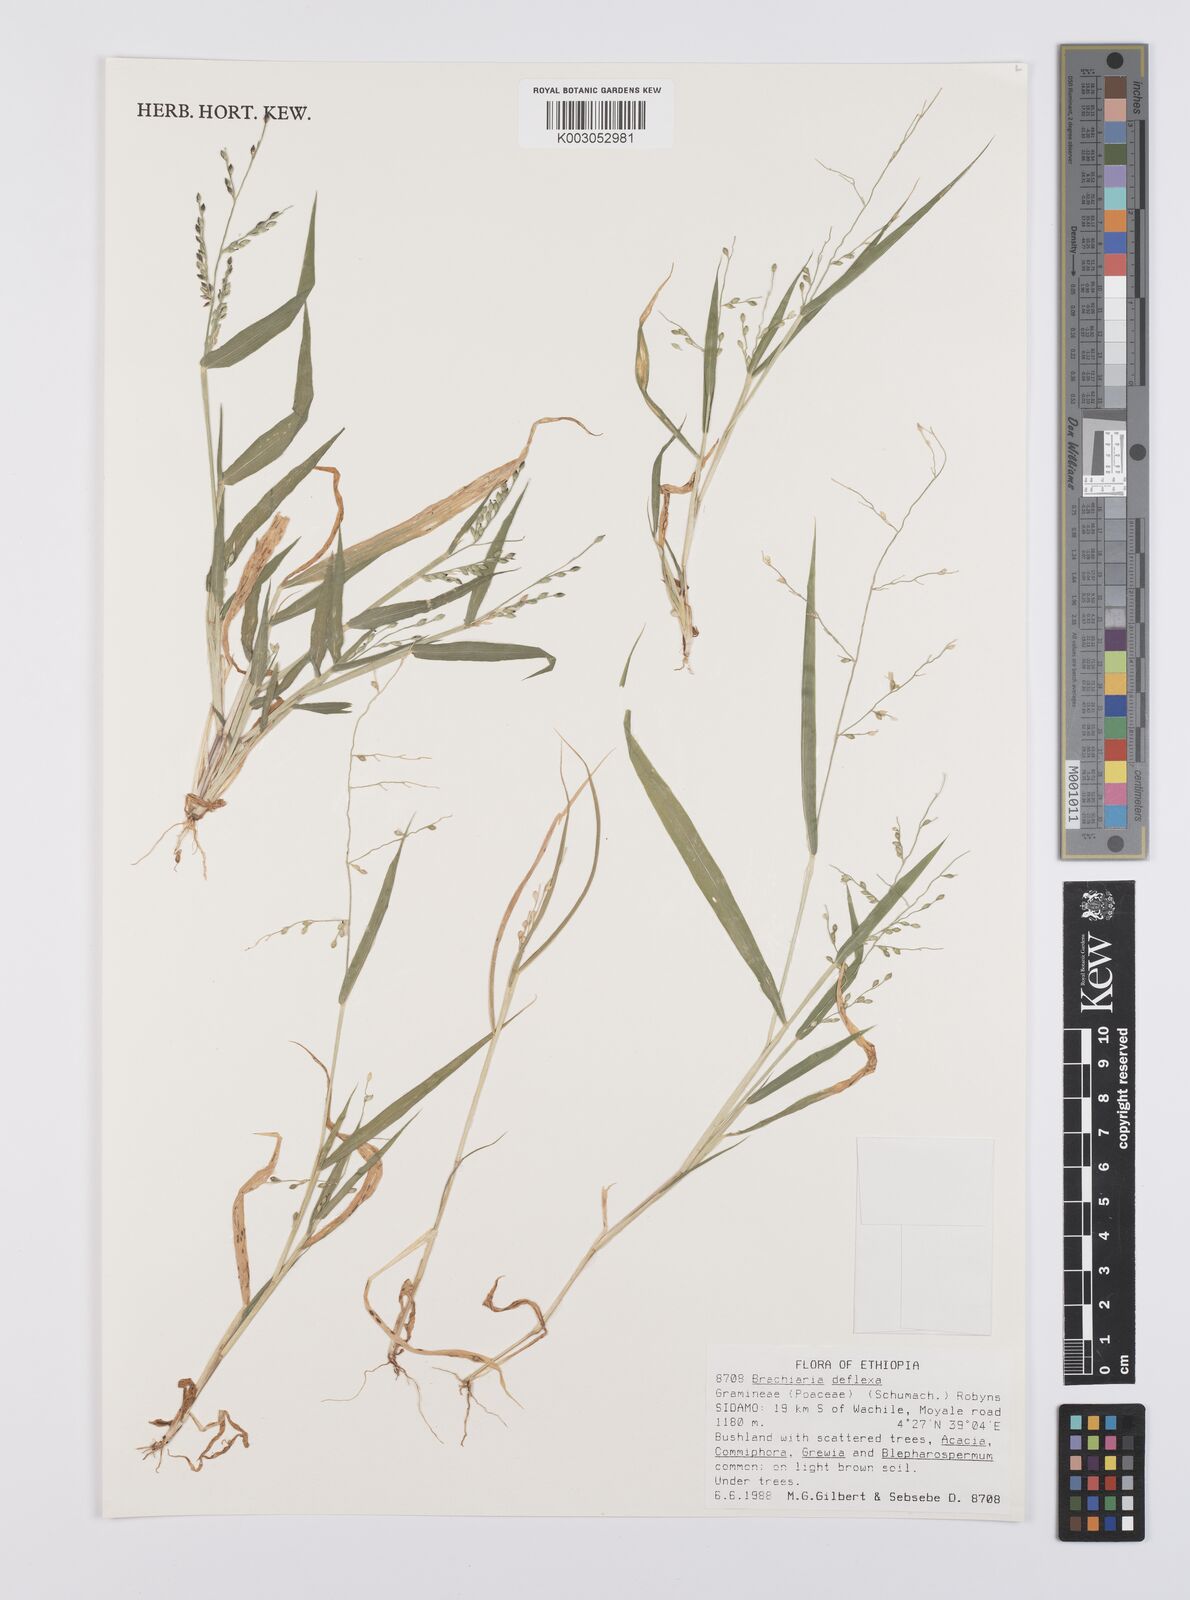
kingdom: Plantae
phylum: Tracheophyta
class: Liliopsida
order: Poales
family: Poaceae
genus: Urochloa
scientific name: Urochloa deflexa
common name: Guinea millet
